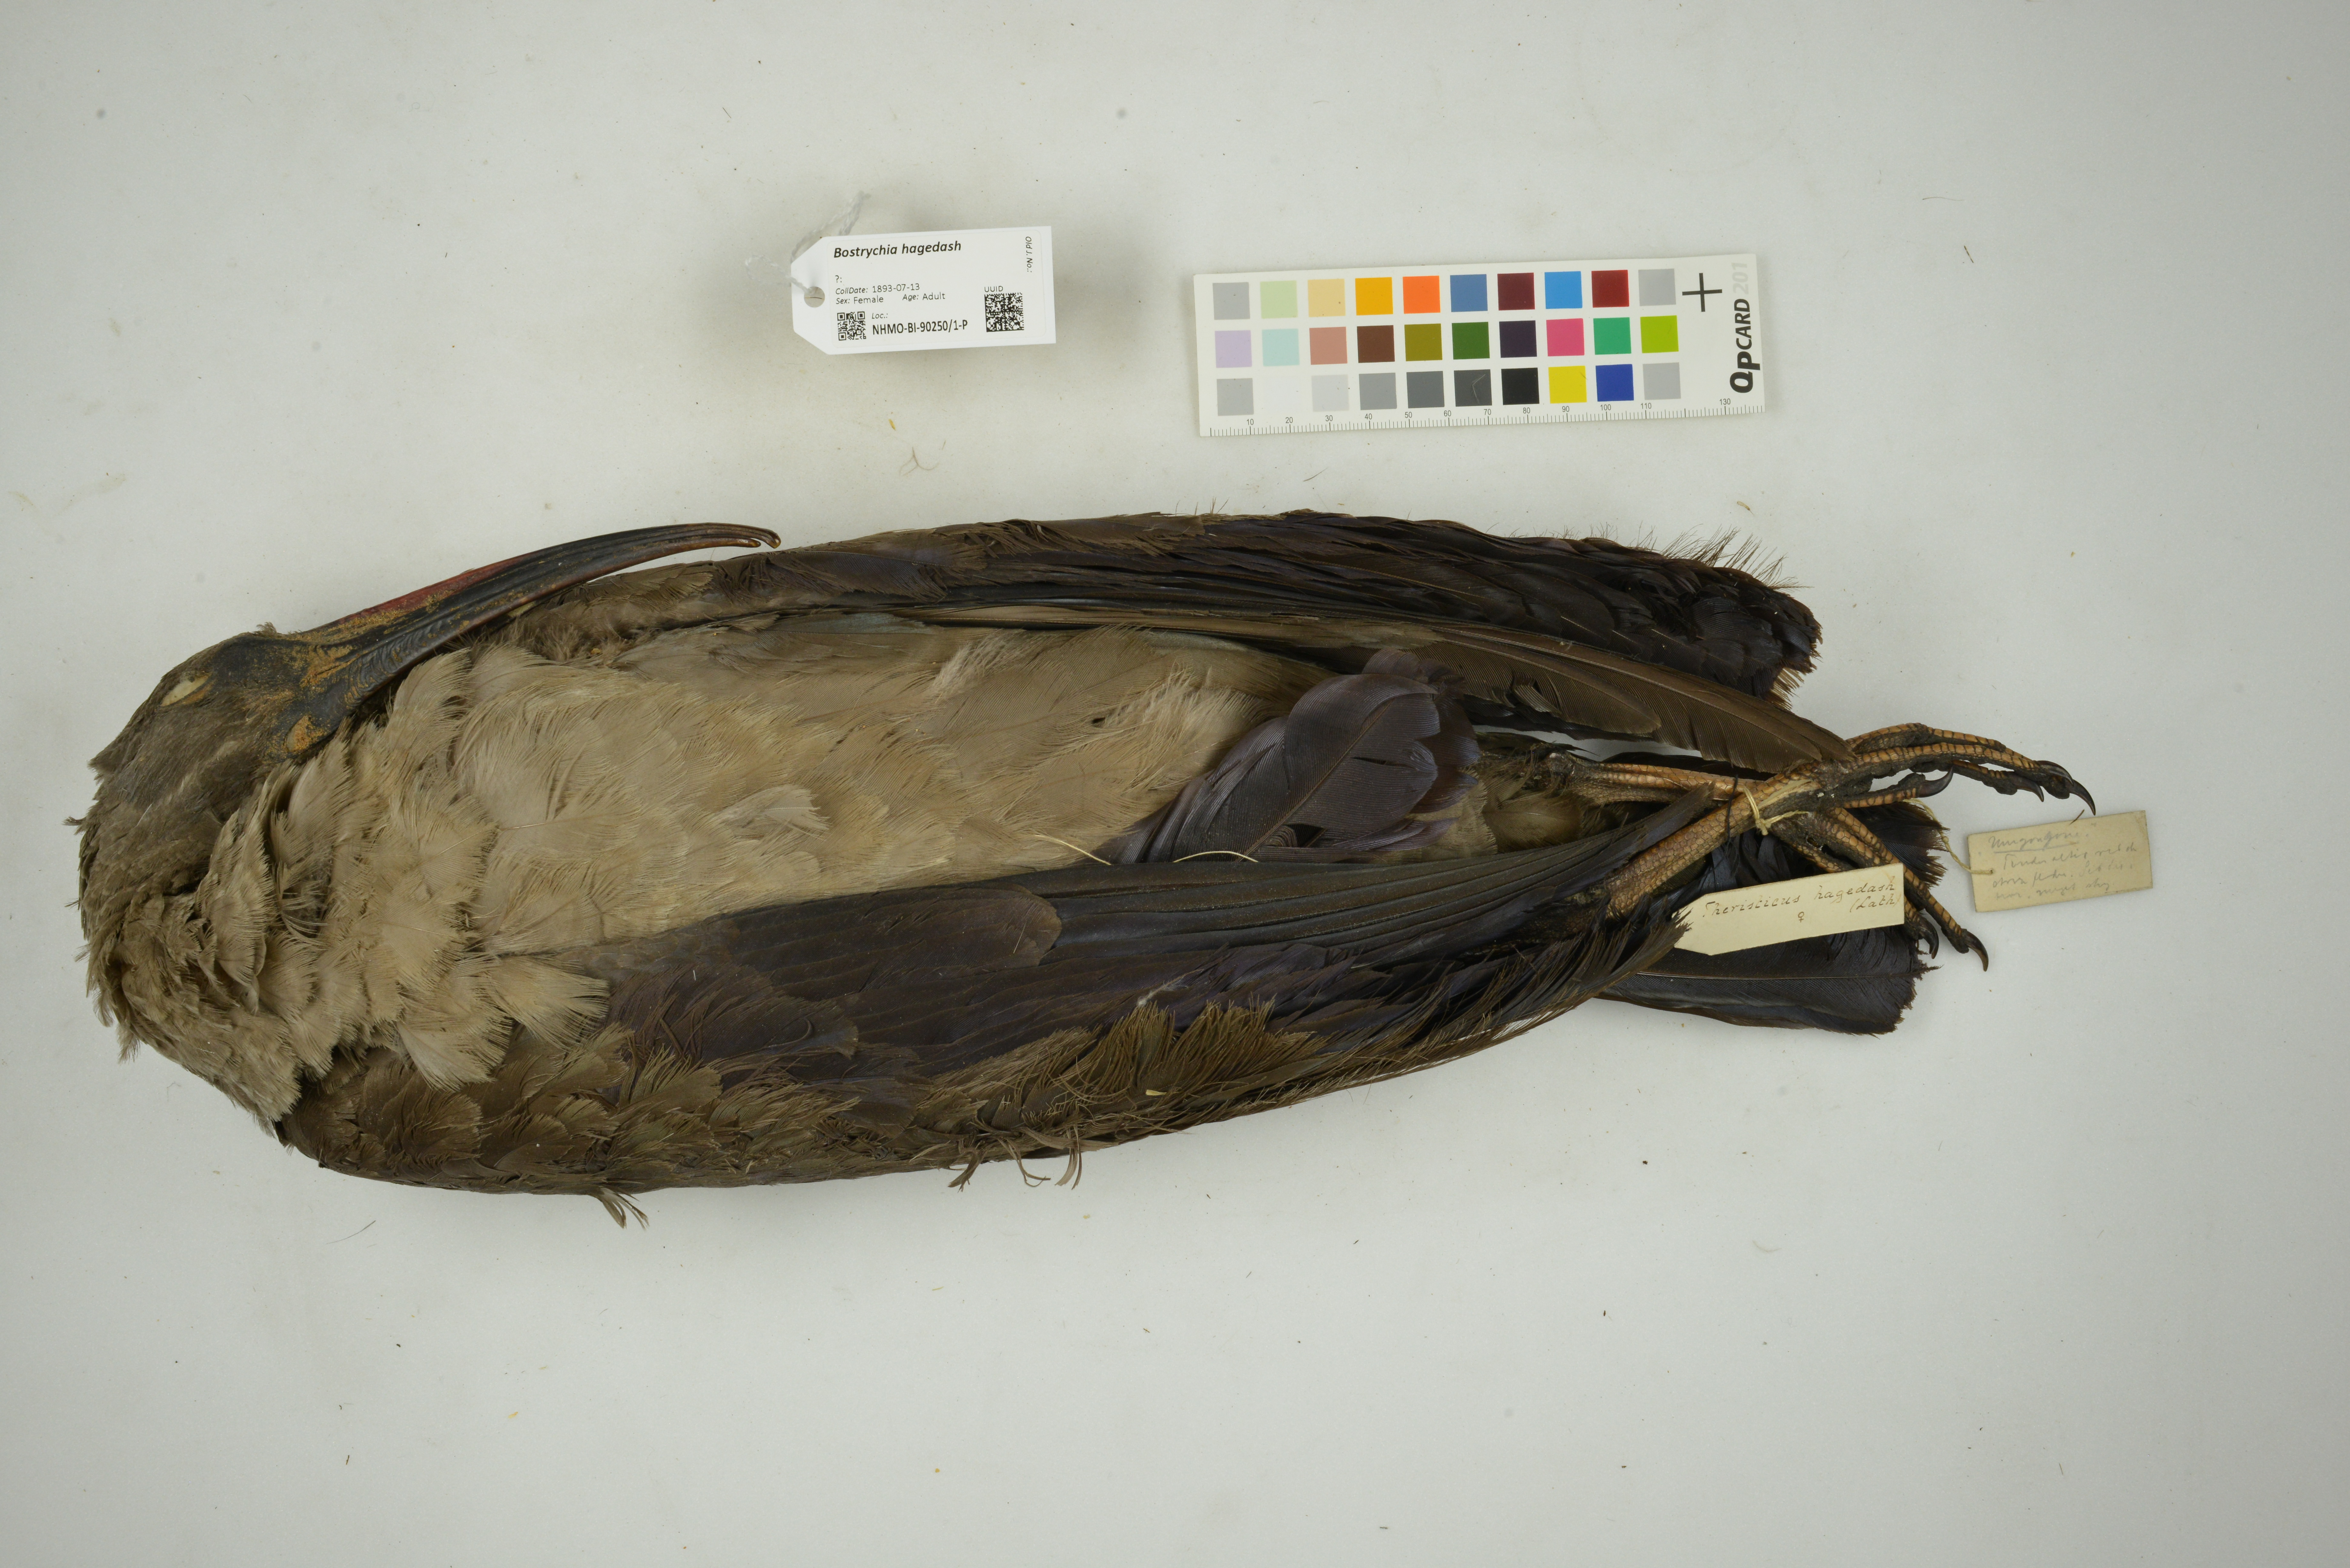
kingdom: Animalia
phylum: Chordata
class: Aves
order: Pelecaniformes
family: Threskiornithidae
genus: Bostrychia
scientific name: Bostrychia hagedash
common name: Hadada ibis
